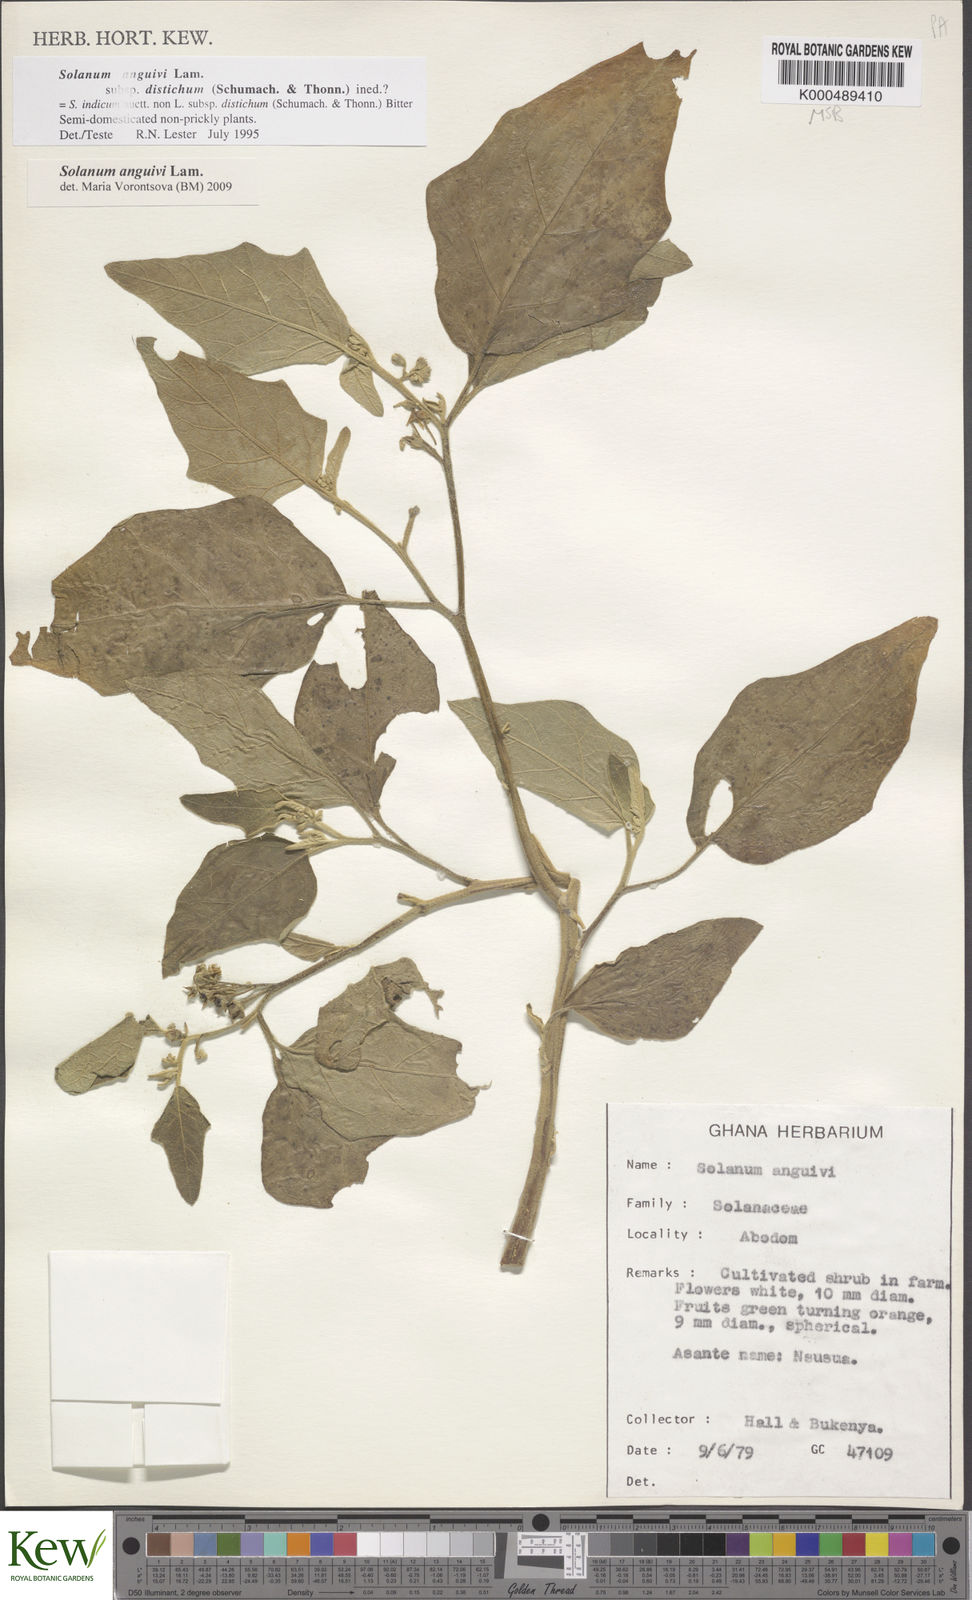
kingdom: Plantae
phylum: Tracheophyta
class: Magnoliopsida
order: Solanales
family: Solanaceae
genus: Solanum
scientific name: Solanum anguivi
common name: Forest bitterberry
